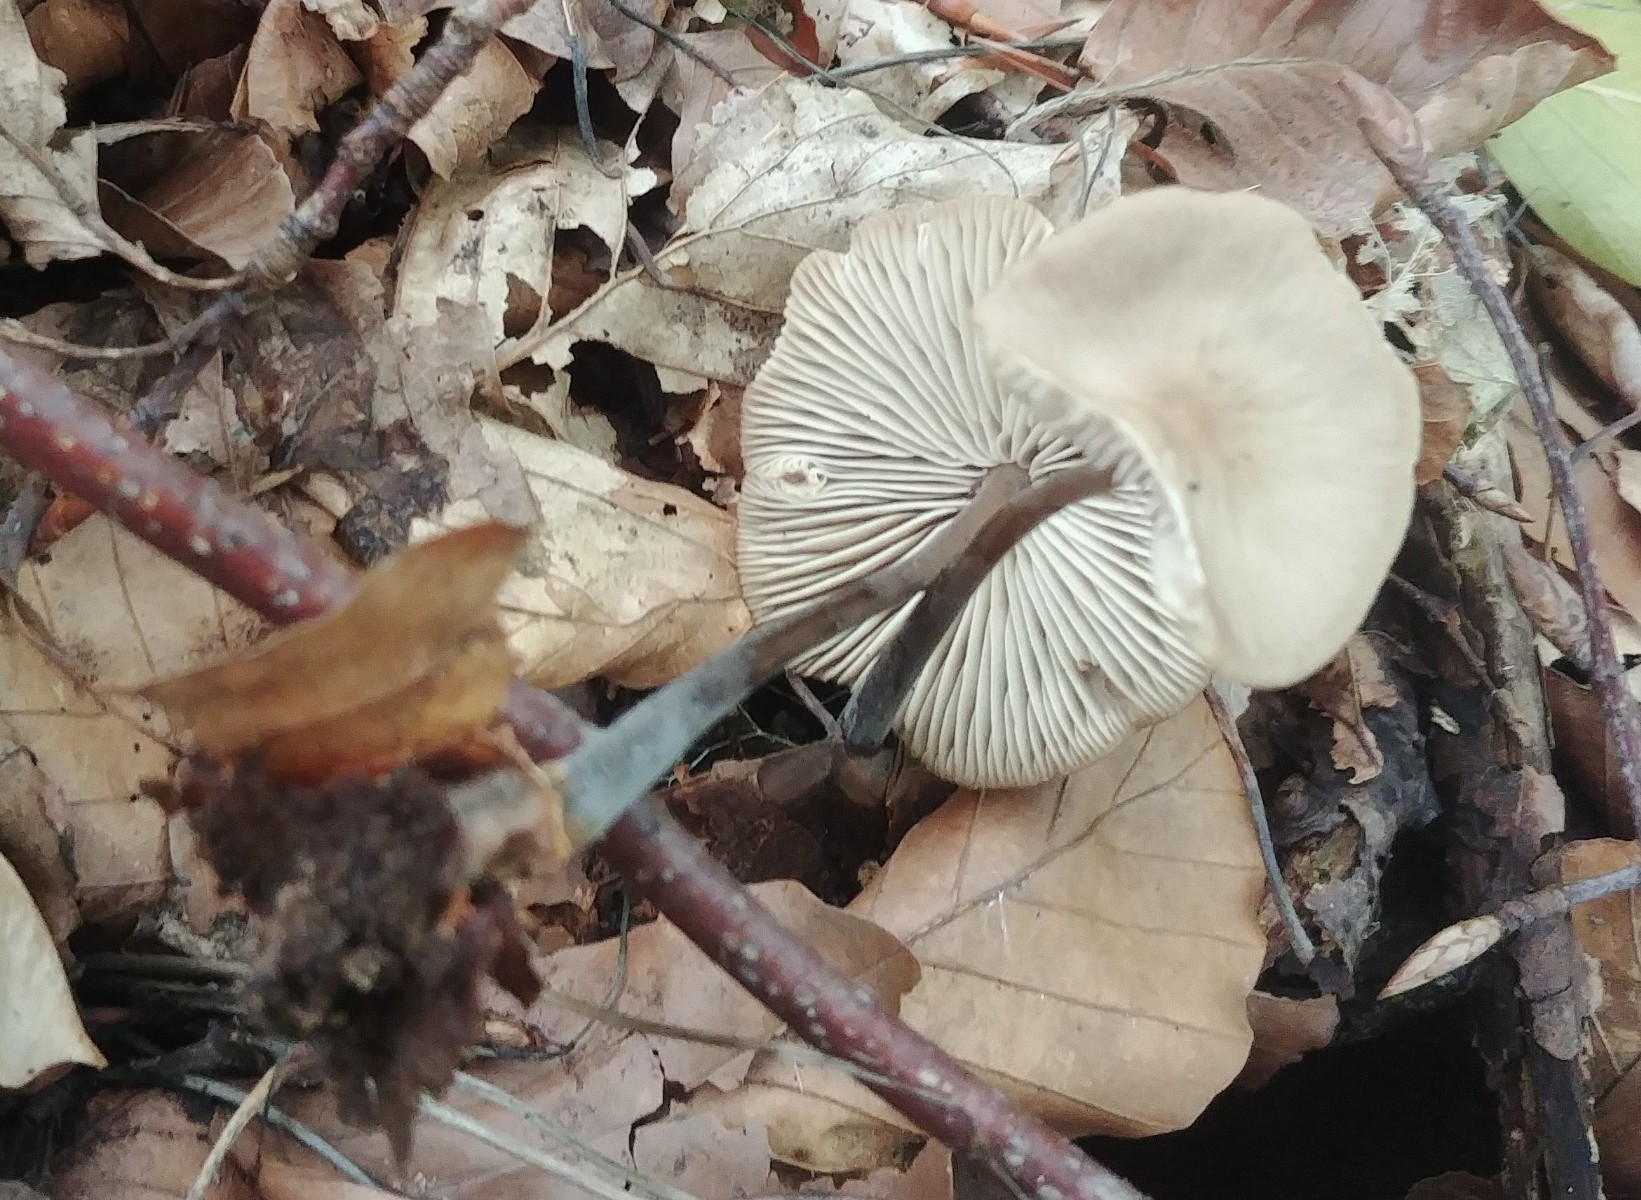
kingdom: Fungi
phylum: Basidiomycota
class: Agaricomycetes
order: Agaricales
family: Omphalotaceae
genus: Mycetinis
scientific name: Mycetinis alliaceus
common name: stor løghat
